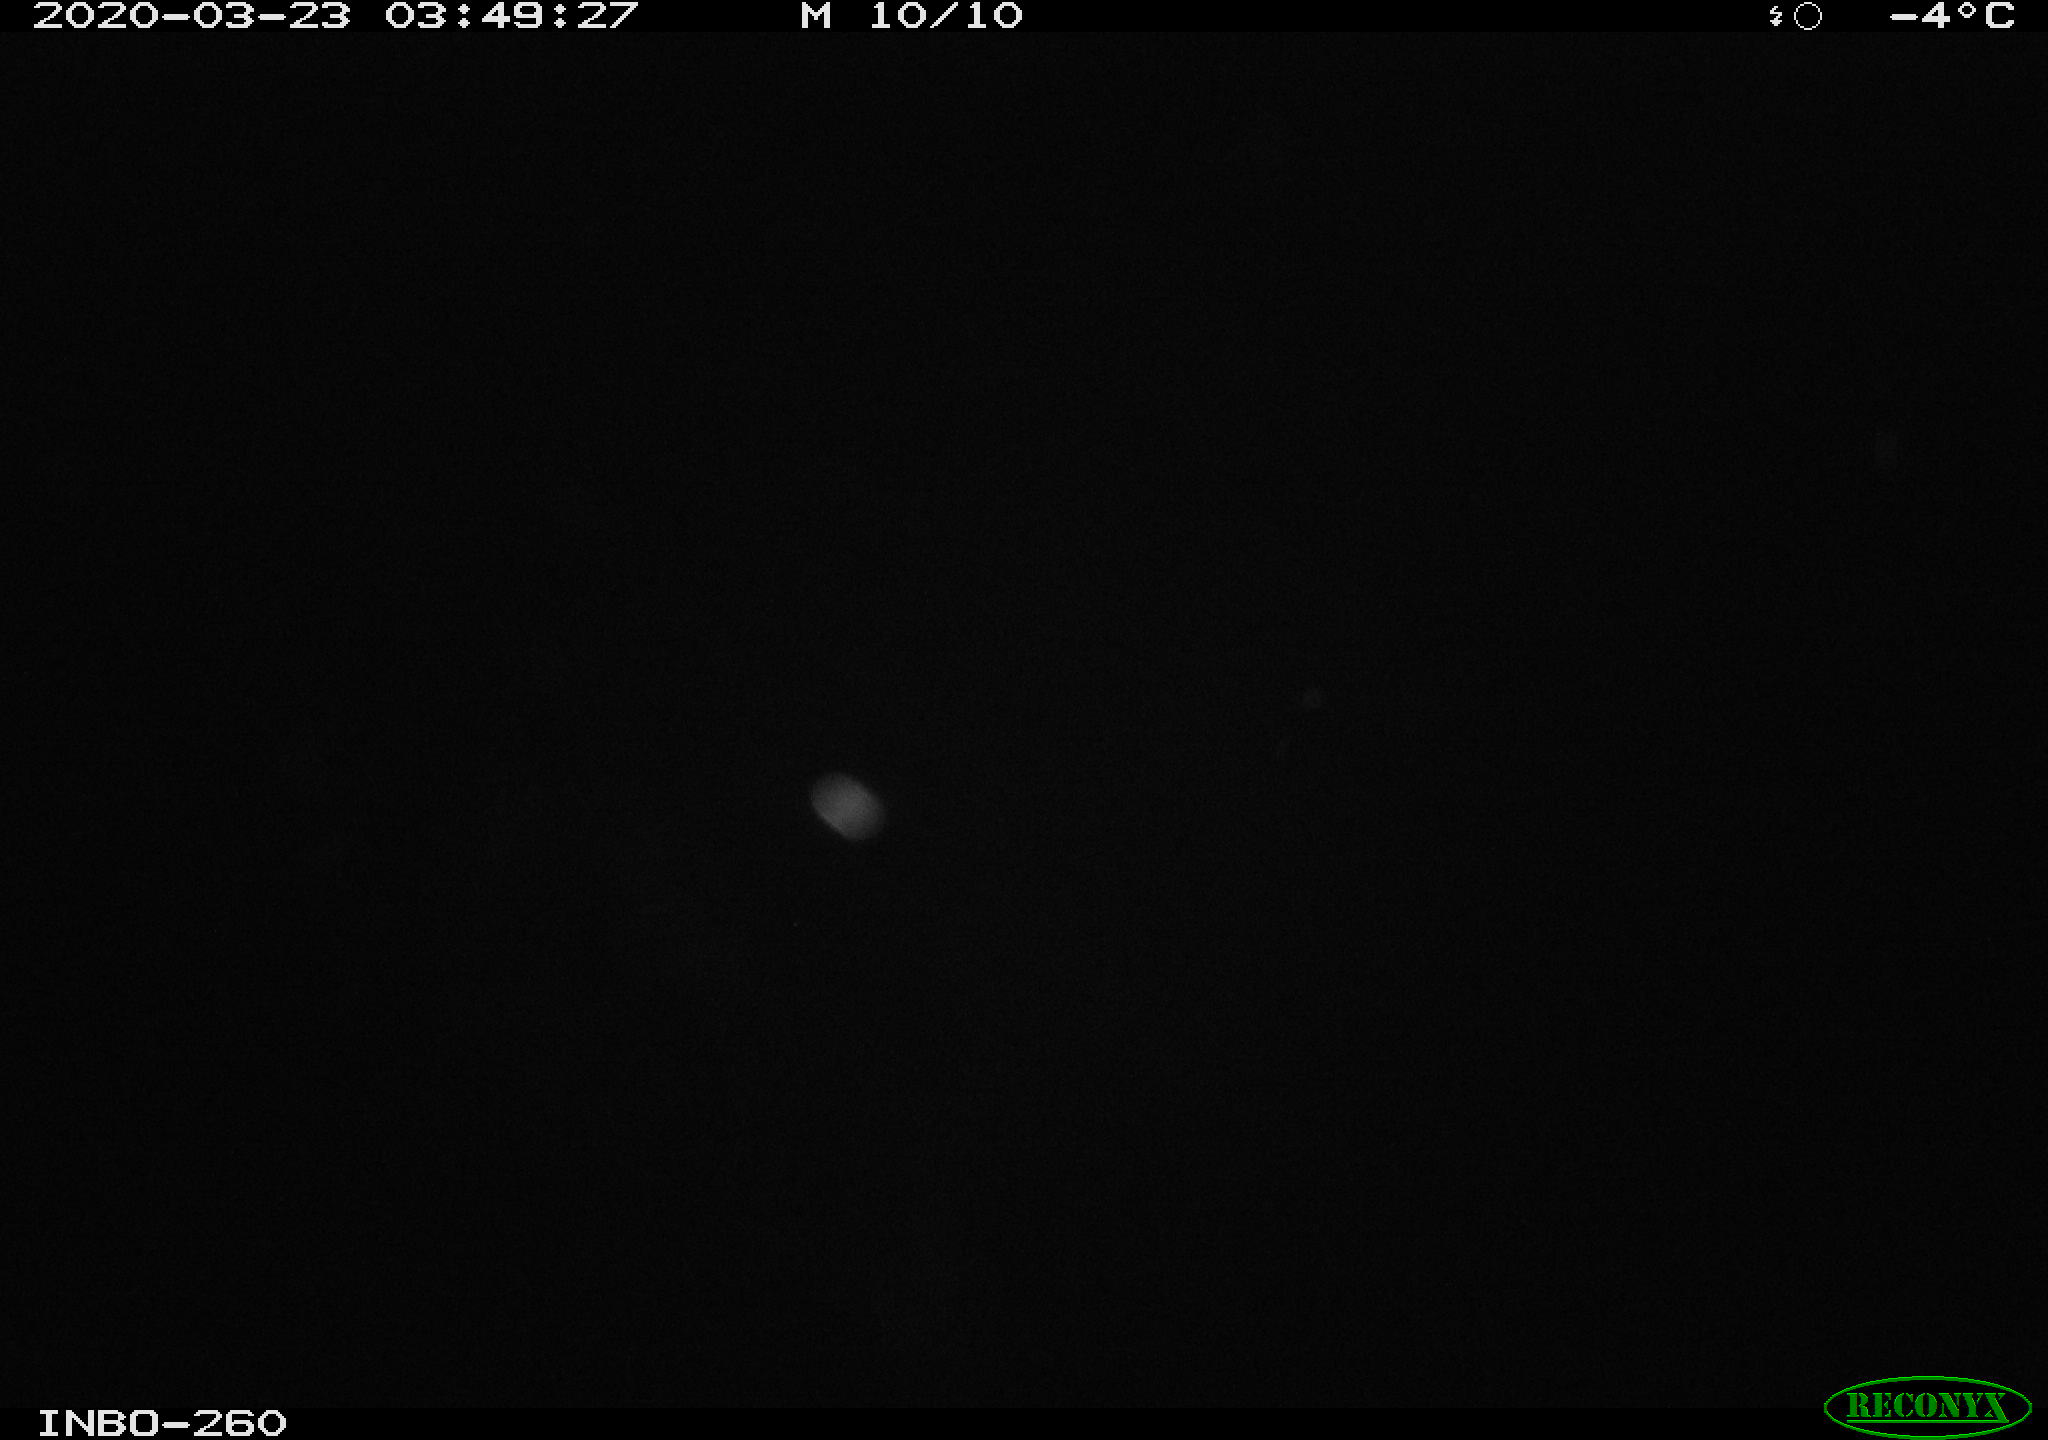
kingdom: Animalia
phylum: Chordata
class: Aves
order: Anseriformes
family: Anatidae
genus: Anas
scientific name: Anas platyrhynchos
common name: Mallard
